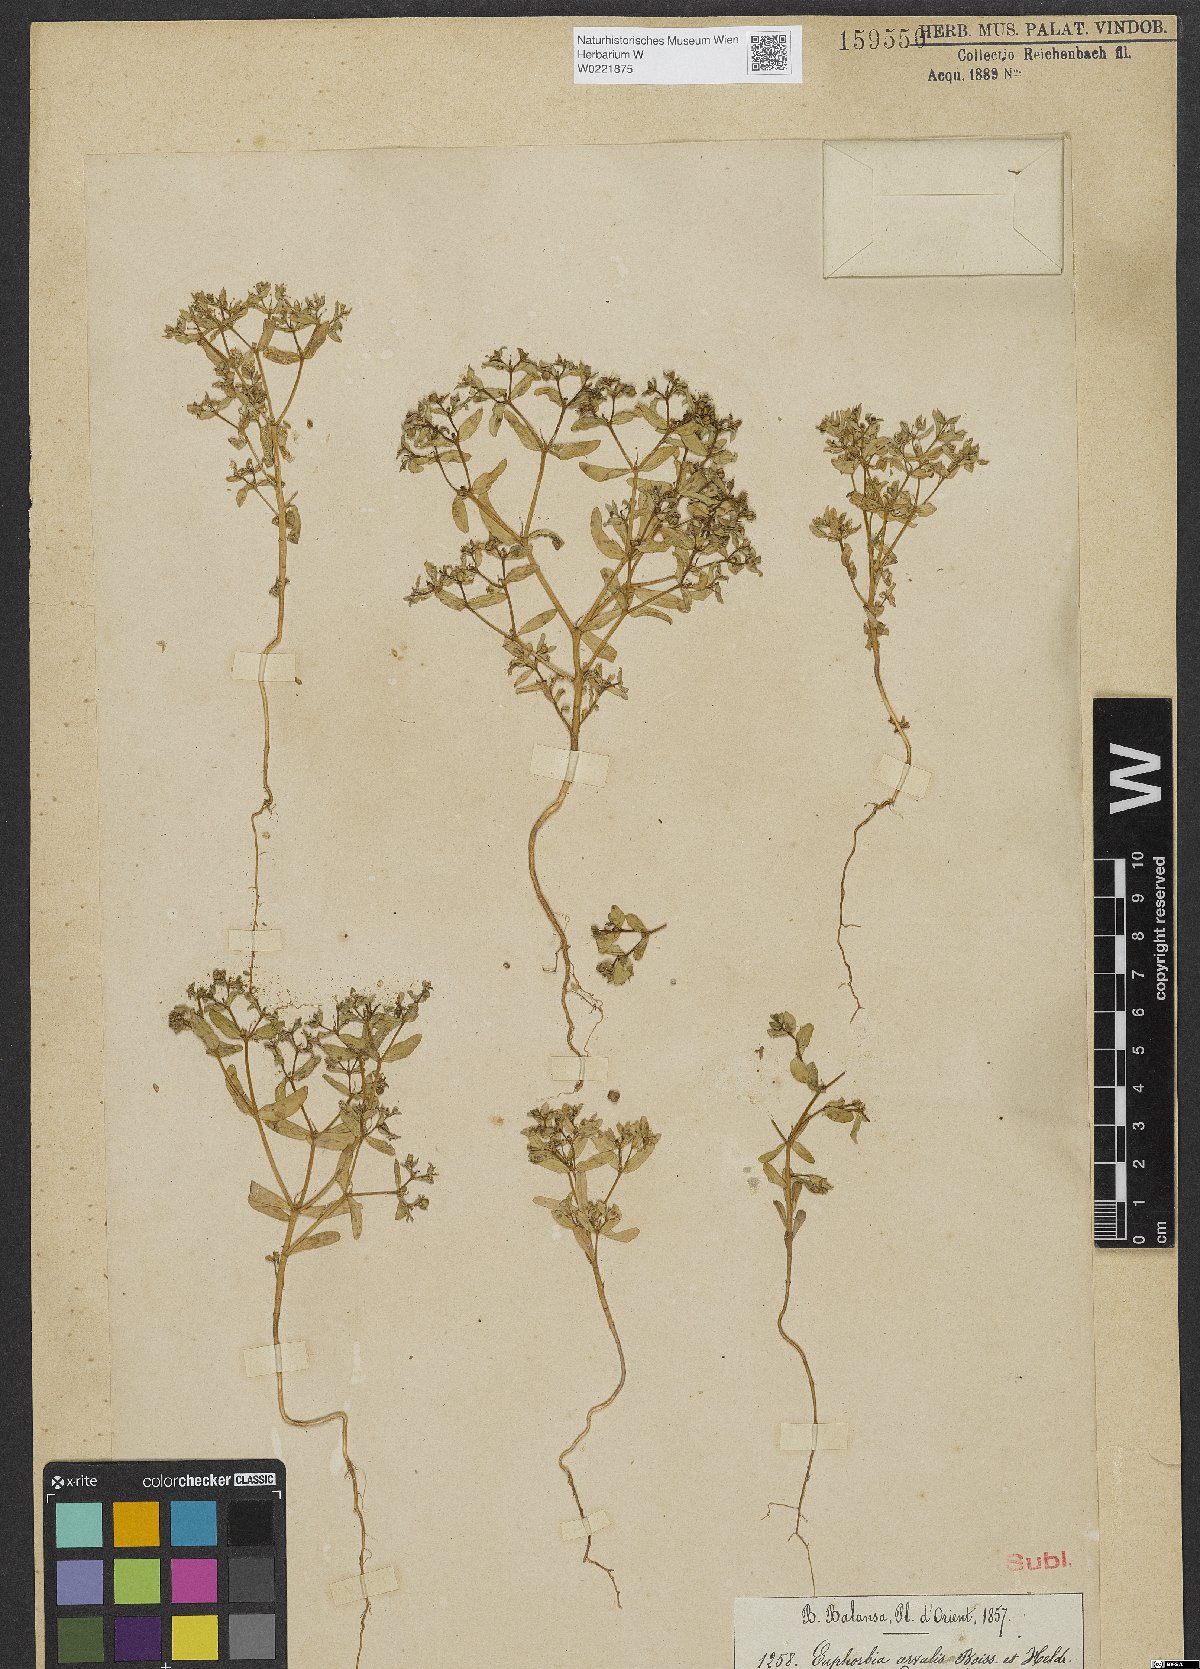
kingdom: Plantae
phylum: Tracheophyta
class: Magnoliopsida
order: Malpighiales
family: Euphorbiaceae
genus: Euphorbia
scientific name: Euphorbia arvalis
